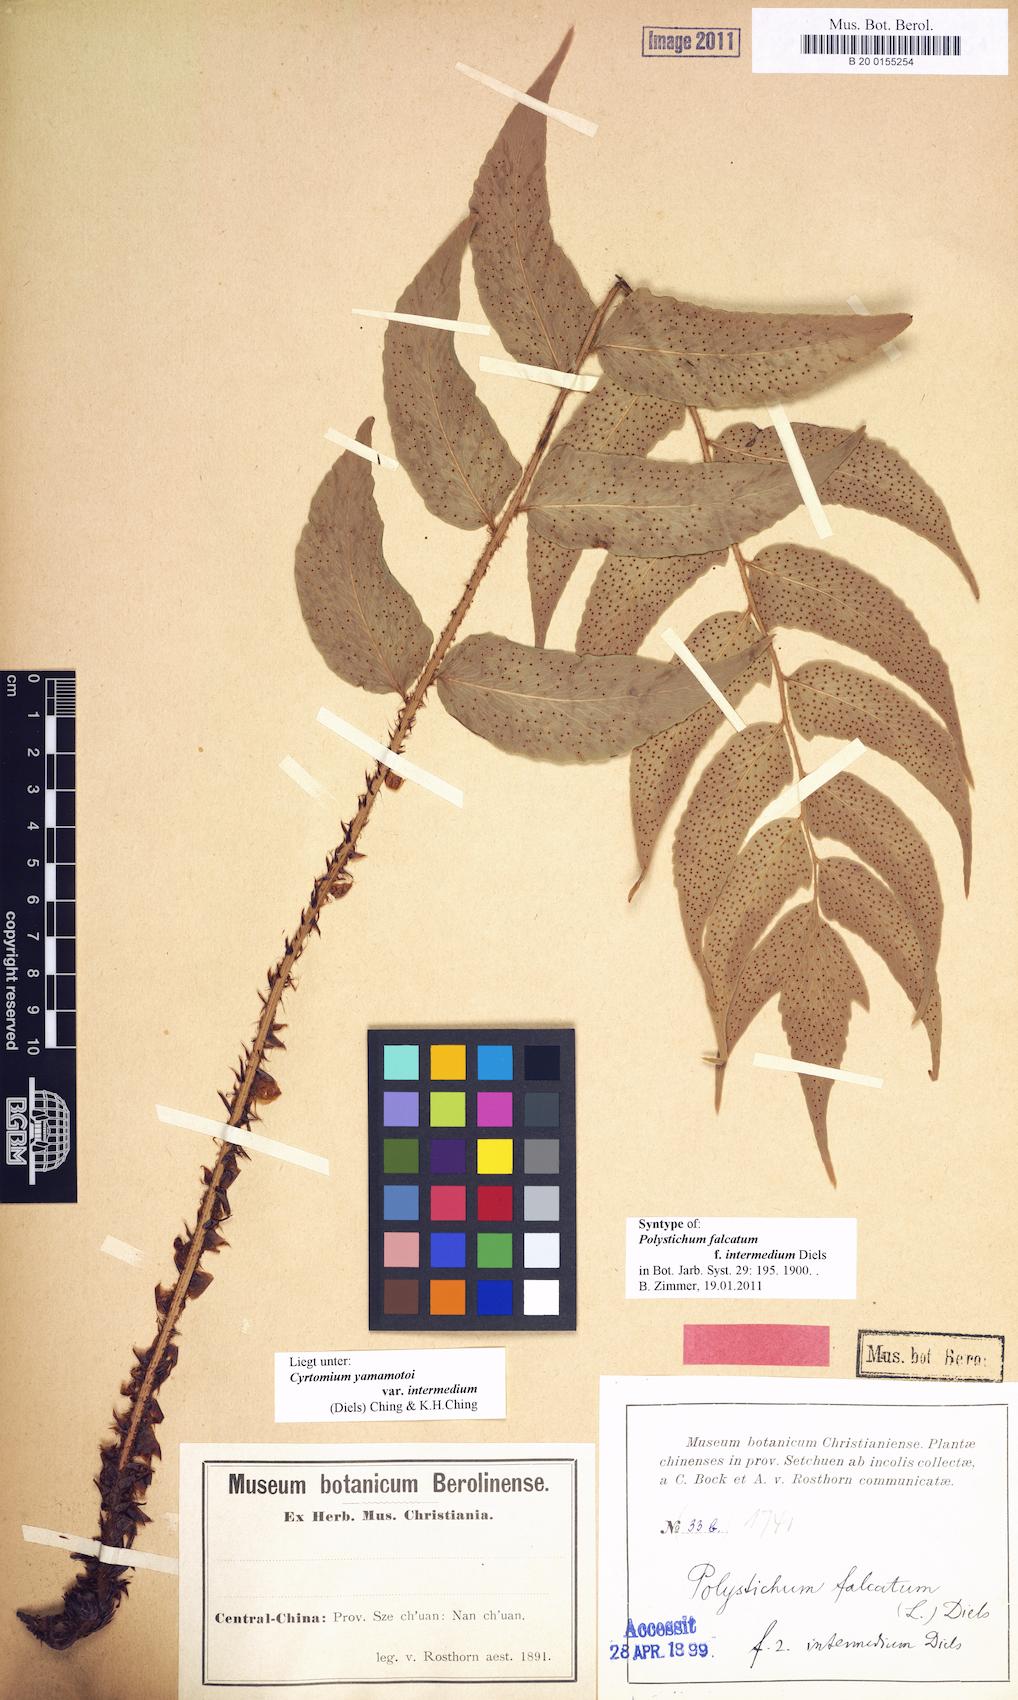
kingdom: Plantae
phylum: Tracheophyta
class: Polypodiopsida
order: Polypodiales
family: Dryopteridaceae
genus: Cyrtomium
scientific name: Cyrtomium yamamotoi
